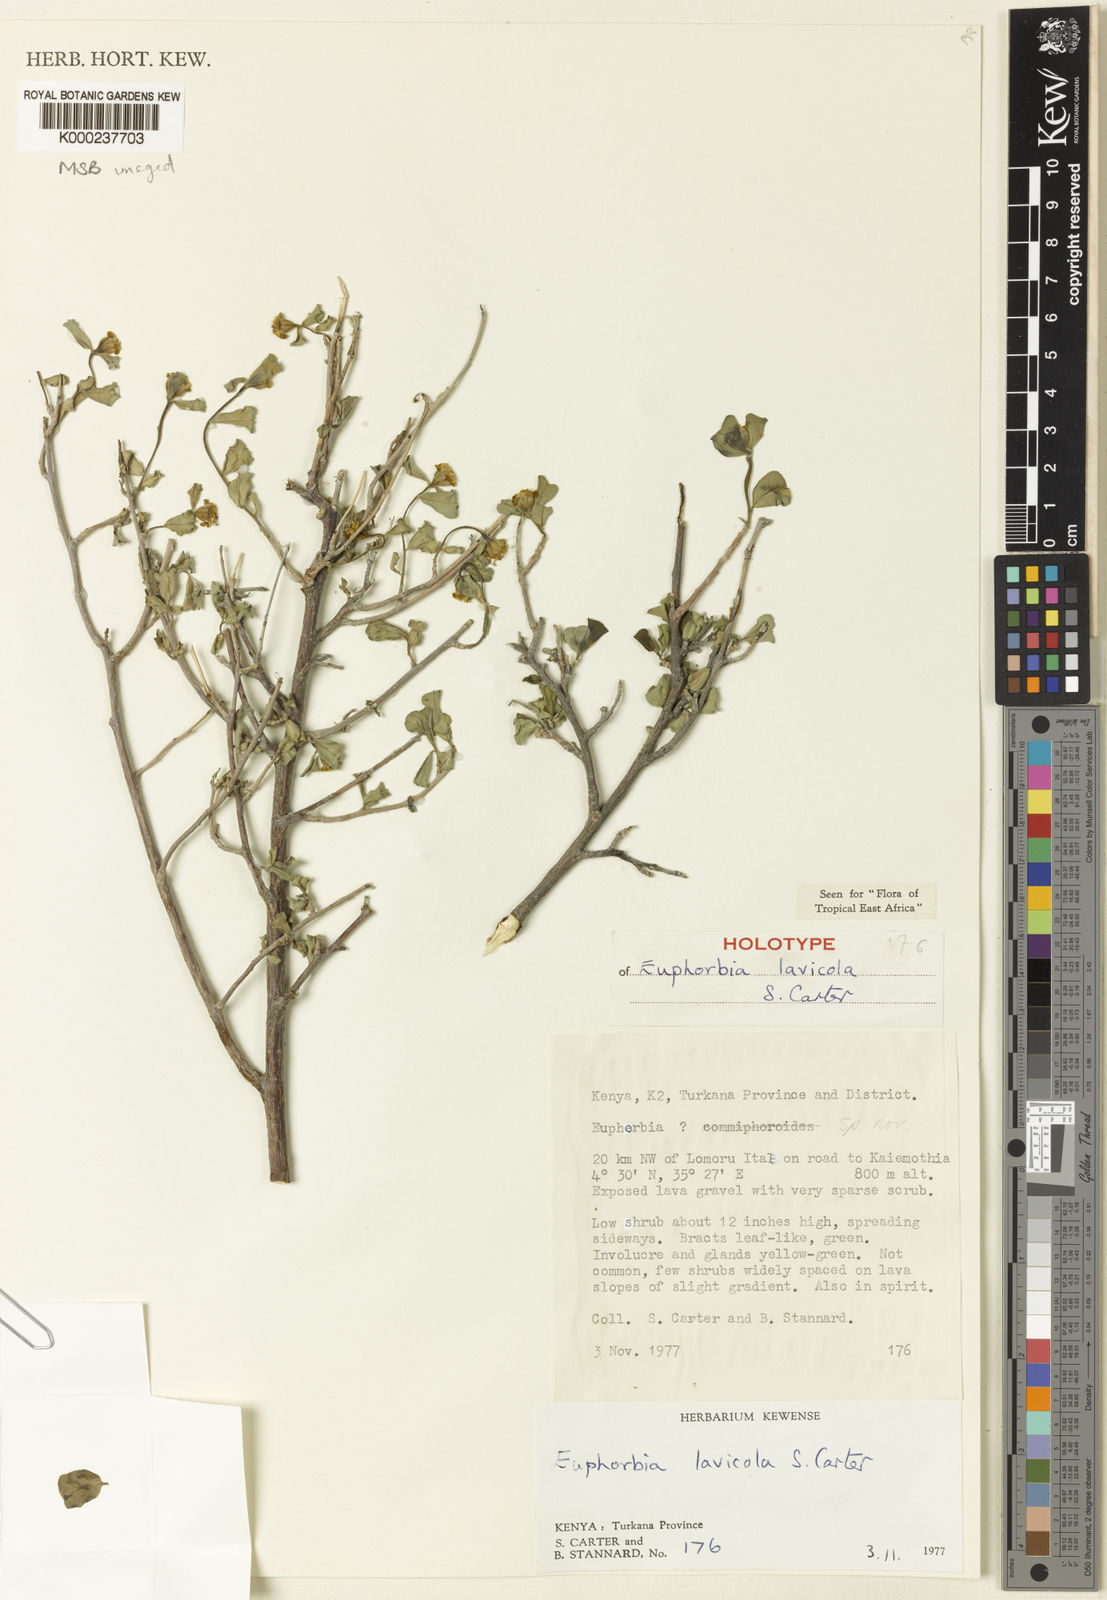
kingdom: Plantae
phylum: Tracheophyta
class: Magnoliopsida
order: Malpighiales
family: Euphorbiaceae
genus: Euphorbia
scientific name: Euphorbia lavicola
